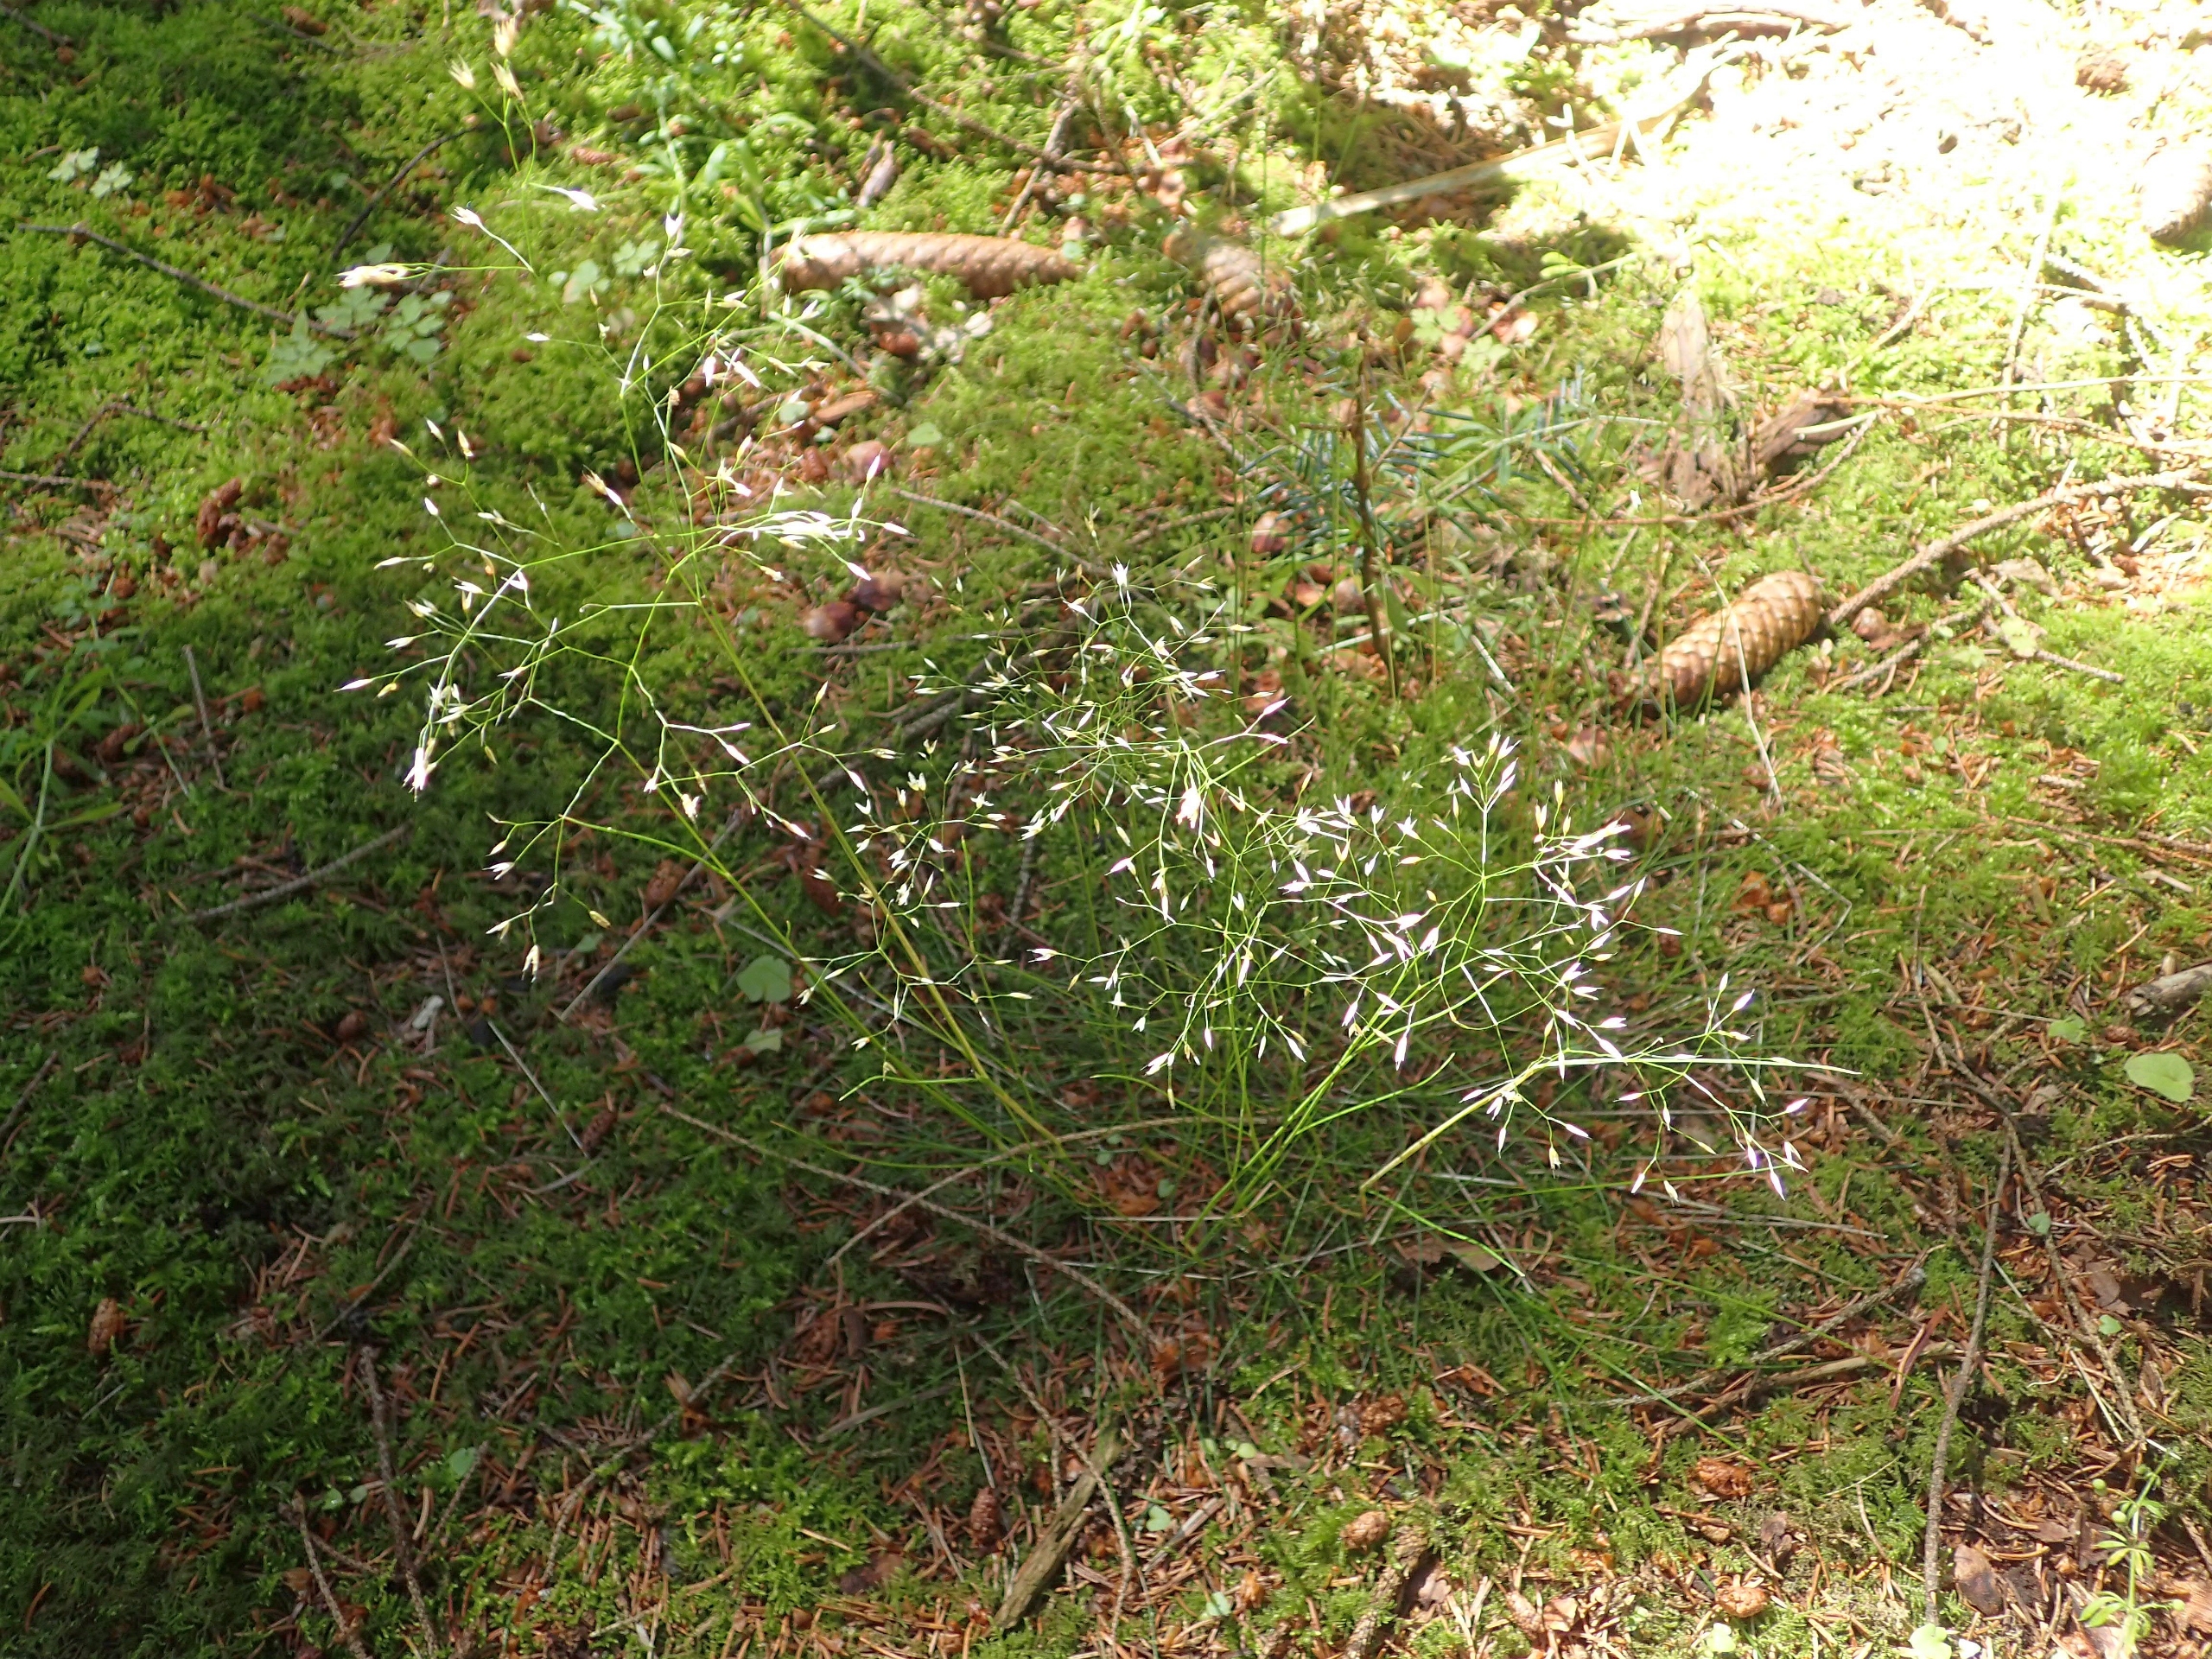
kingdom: Plantae
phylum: Tracheophyta
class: Liliopsida
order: Poales
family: Poaceae
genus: Avenella
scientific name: Avenella flexuosa
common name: Bølget bunke
